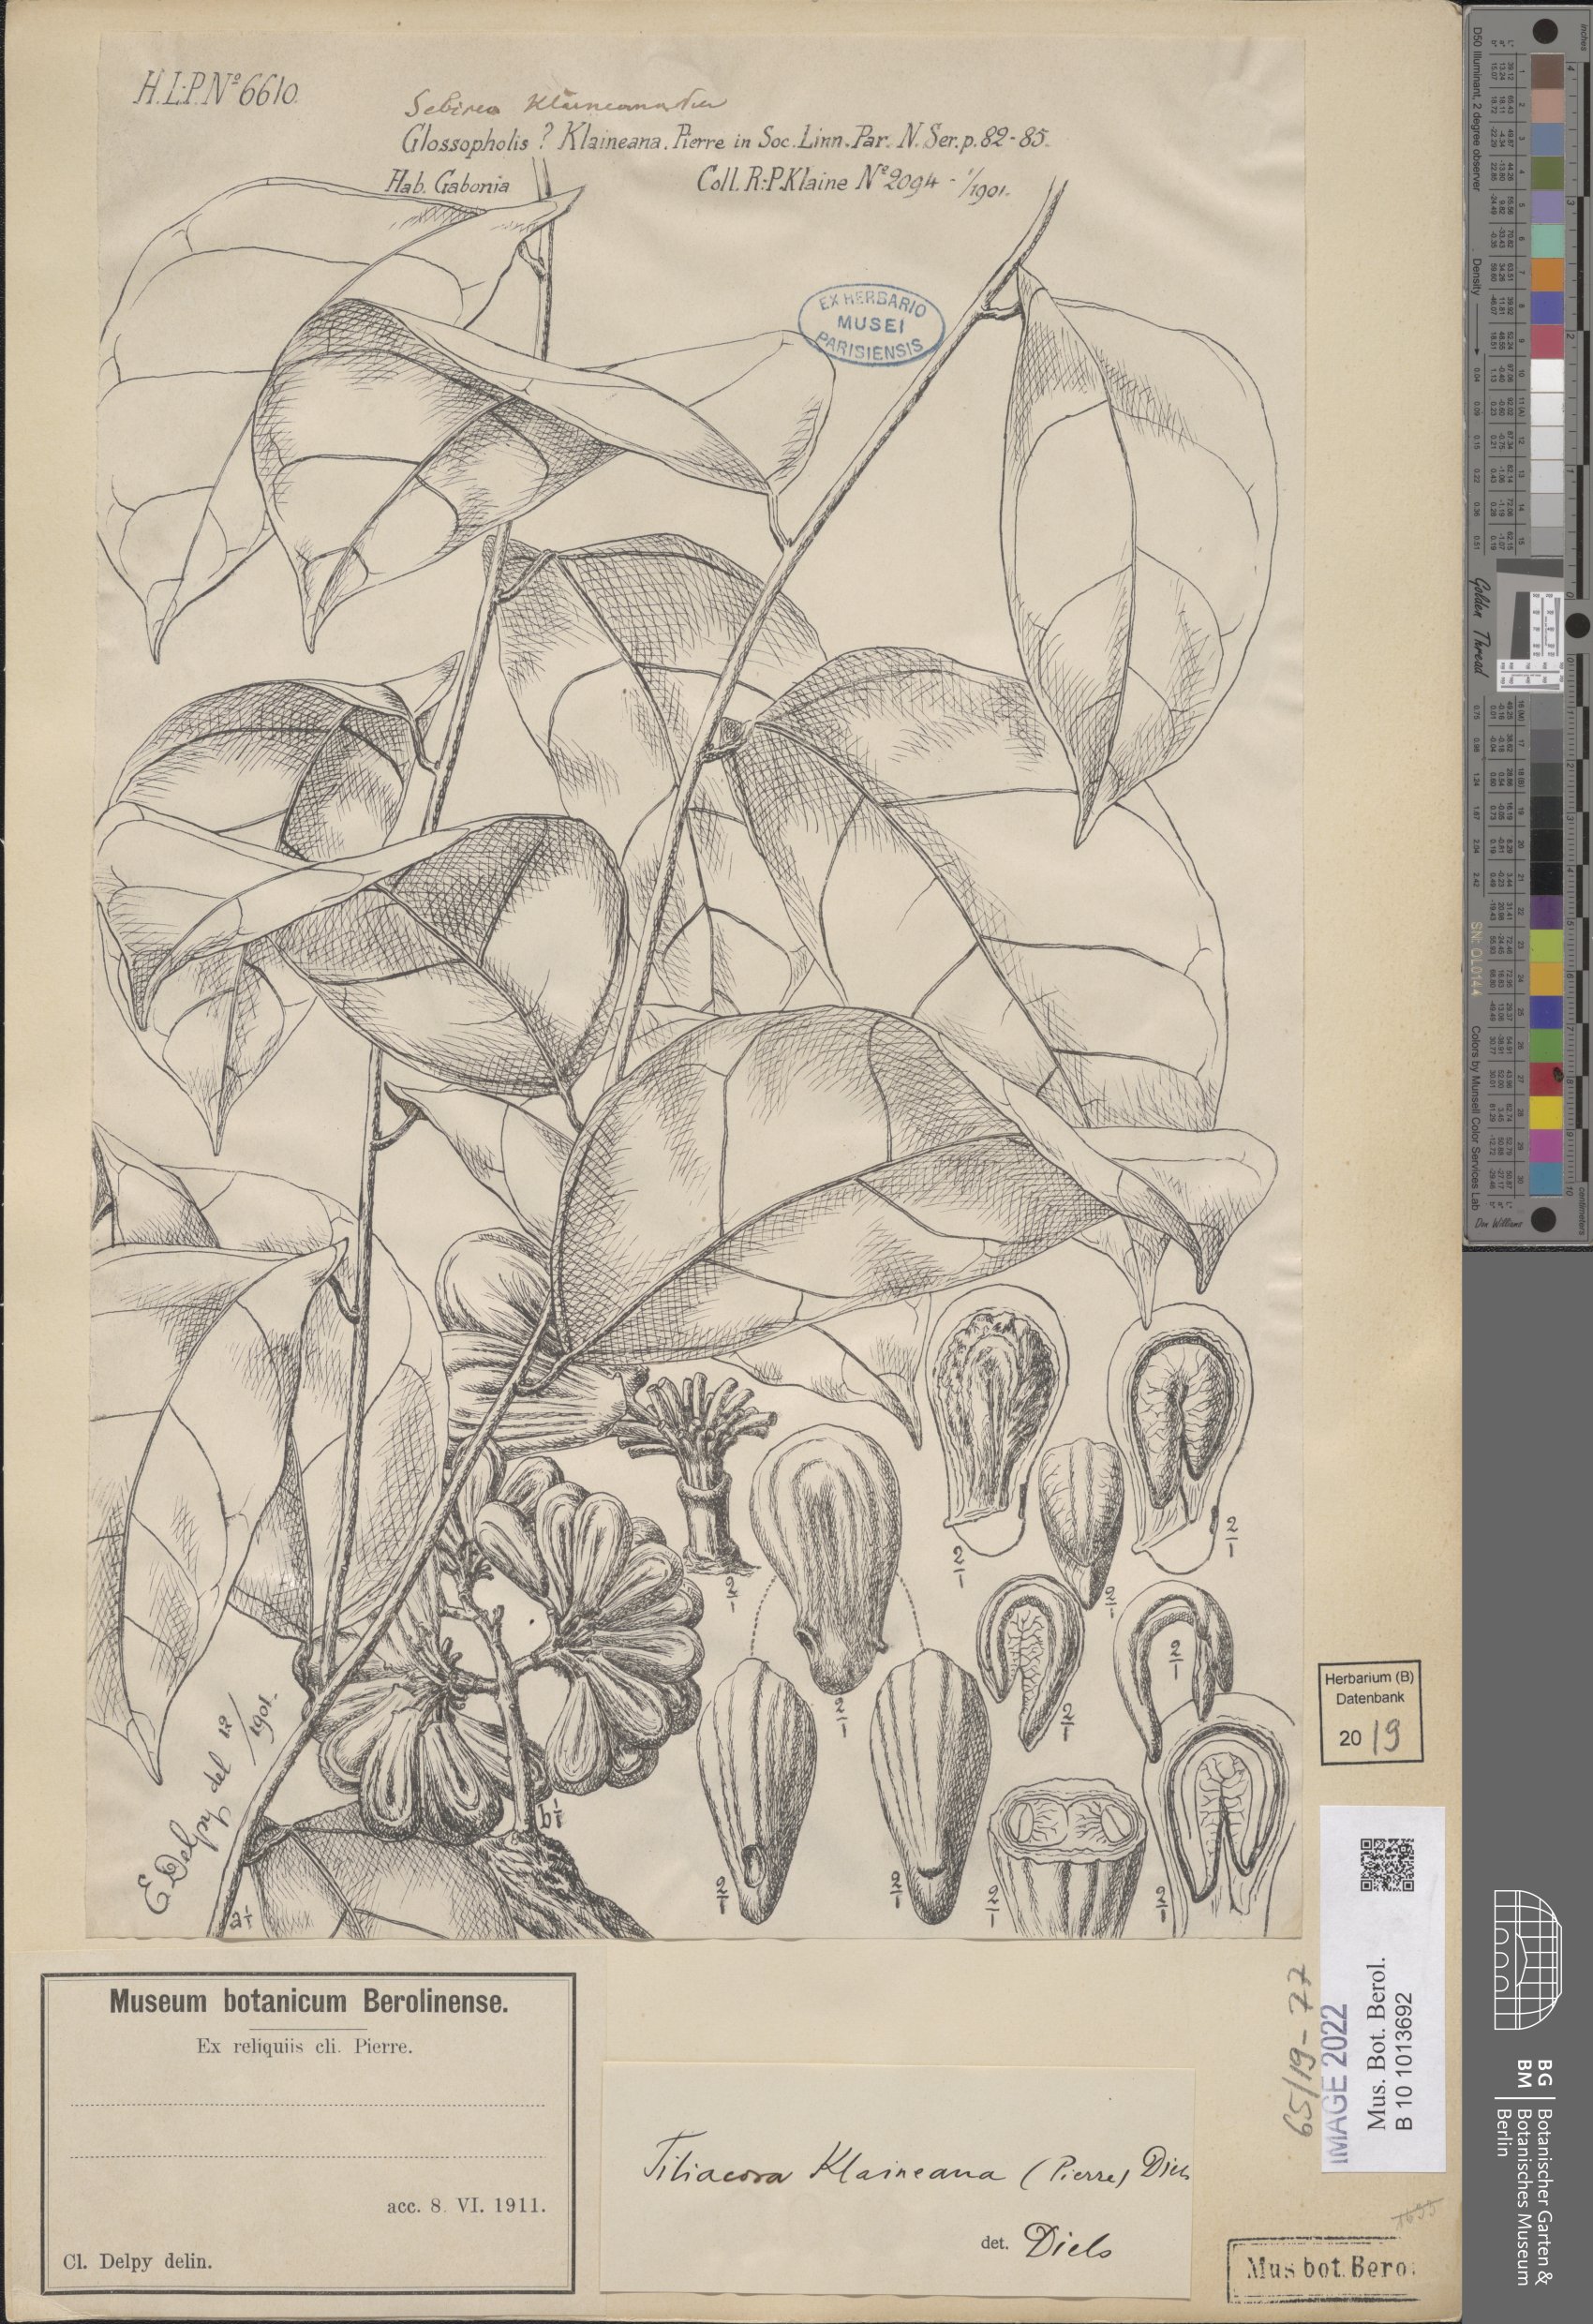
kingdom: Plantae
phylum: Tracheophyta
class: Magnoliopsida
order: Ranunculales
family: Menispermaceae
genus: Tiliacora
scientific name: Tiliacora klaineana
